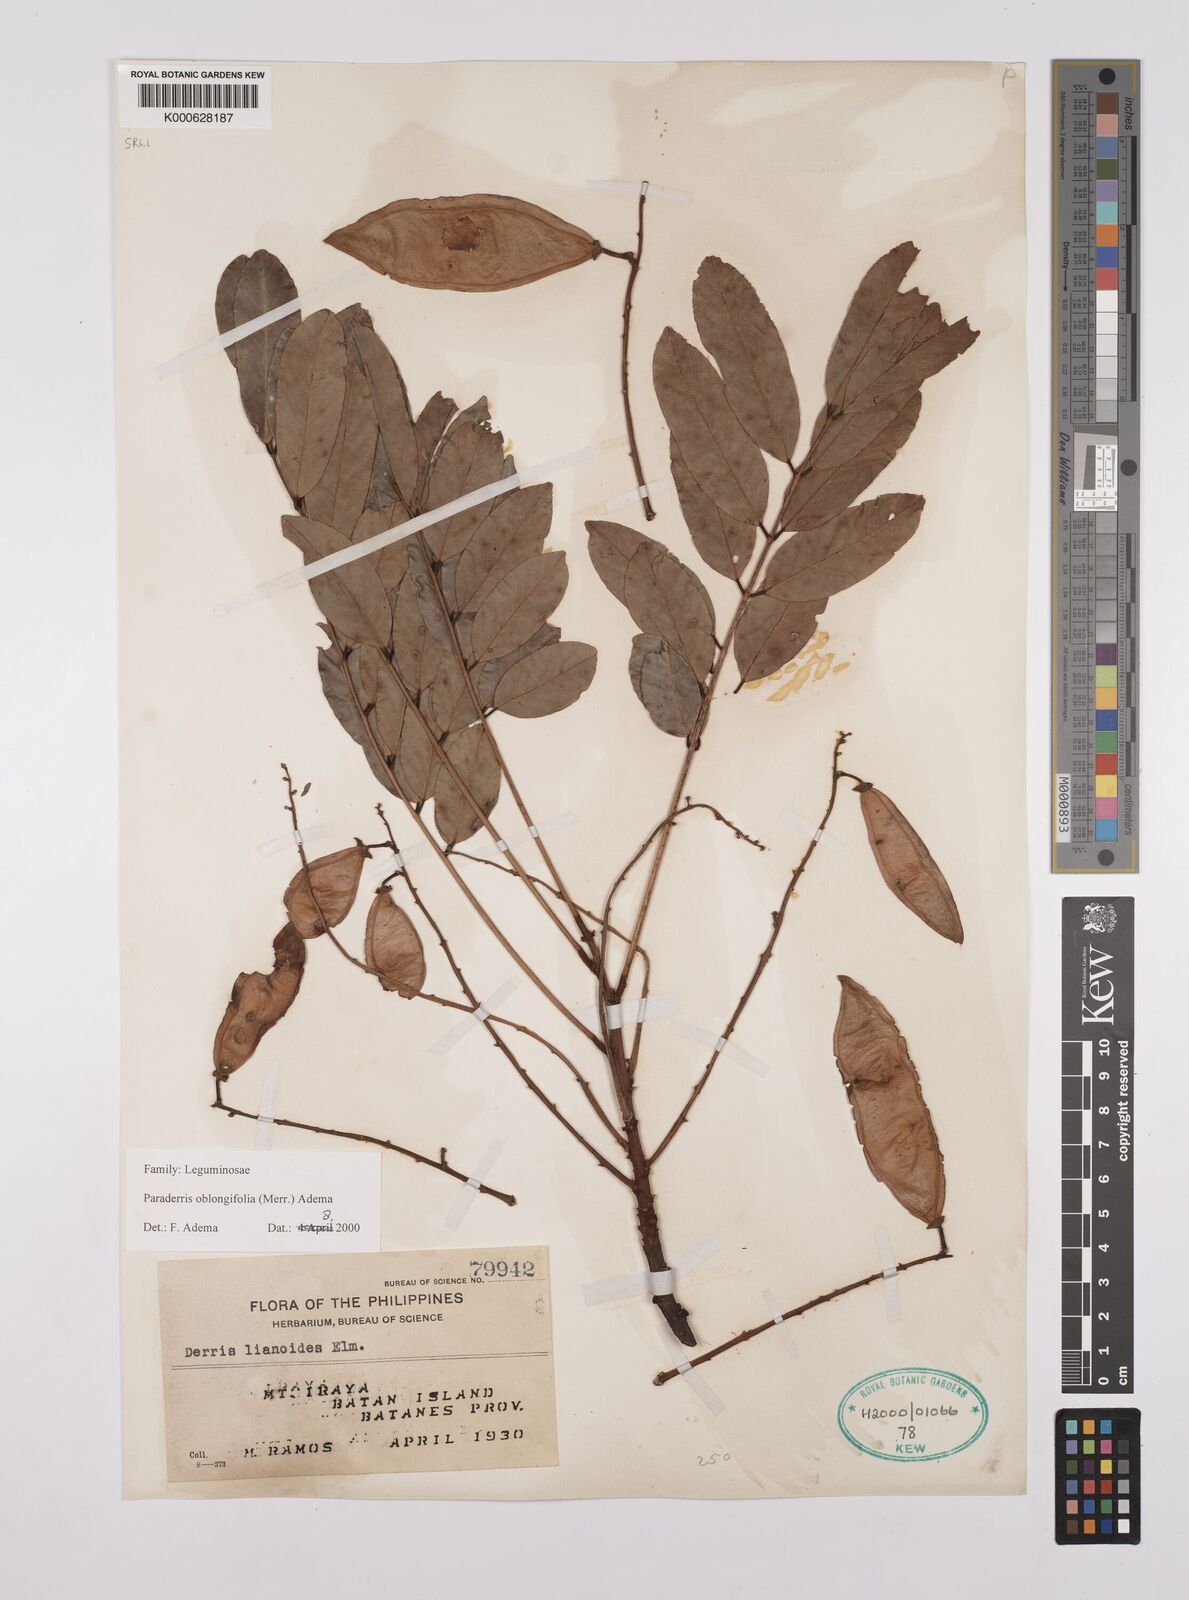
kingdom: Plantae
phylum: Tracheophyta
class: Magnoliopsida
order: Fabales
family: Fabaceae
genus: Derris
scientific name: Derris oblongifolia
